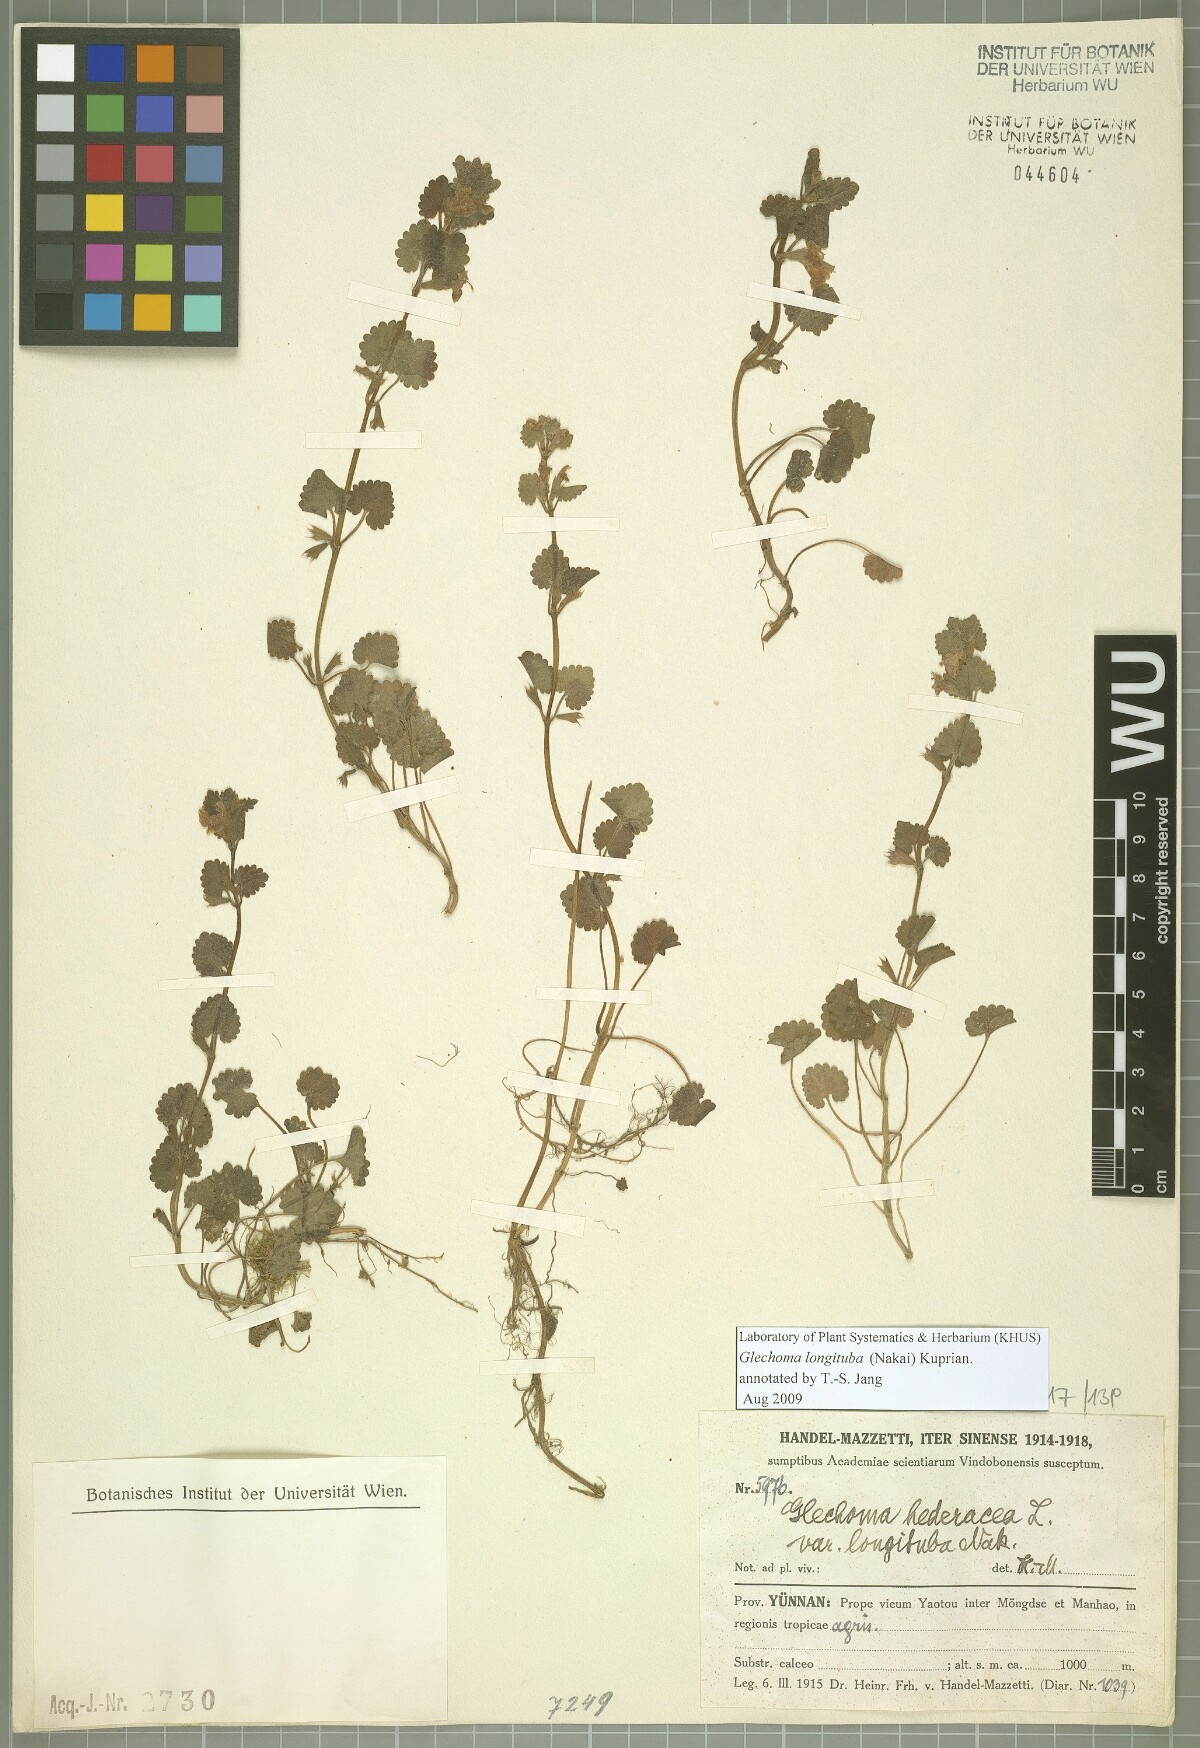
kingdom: Plantae
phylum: Tracheophyta
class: Magnoliopsida
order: Lamiales
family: Lamiaceae
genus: Glechoma
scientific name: Glechoma longituba
